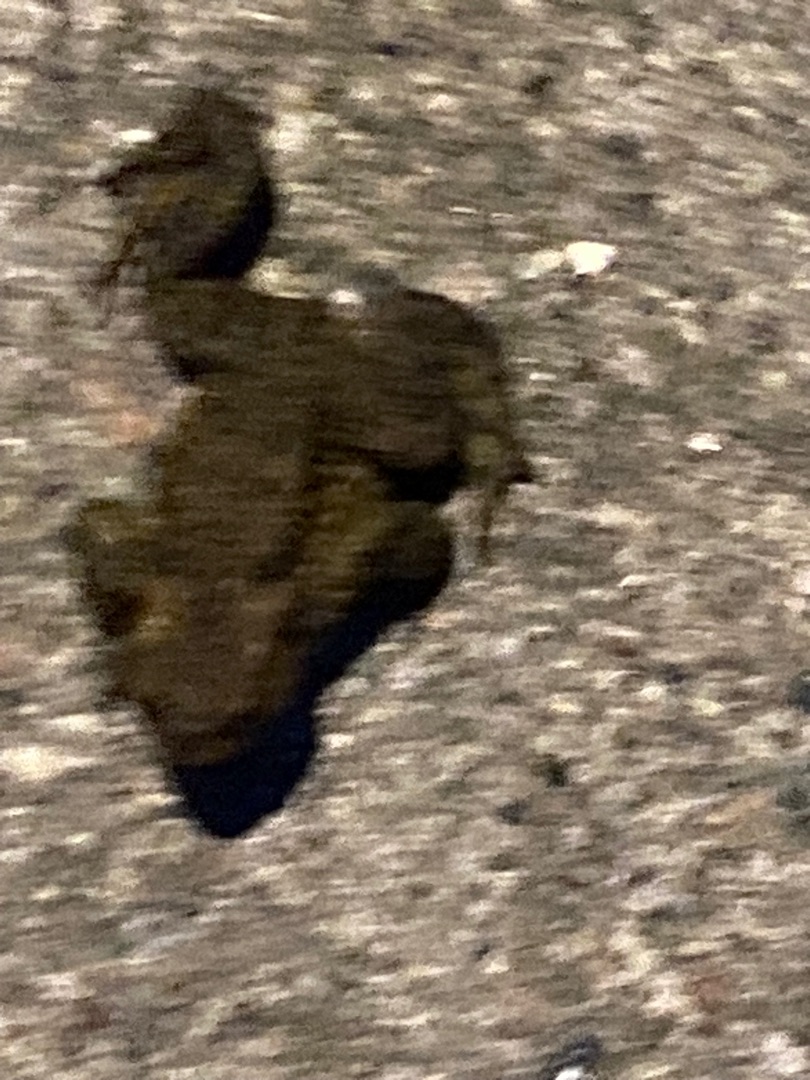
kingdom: Animalia
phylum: Chordata
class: Amphibia
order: Anura
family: Bufonidae
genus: Bufo
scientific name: Bufo bufo
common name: Skrubtudse
